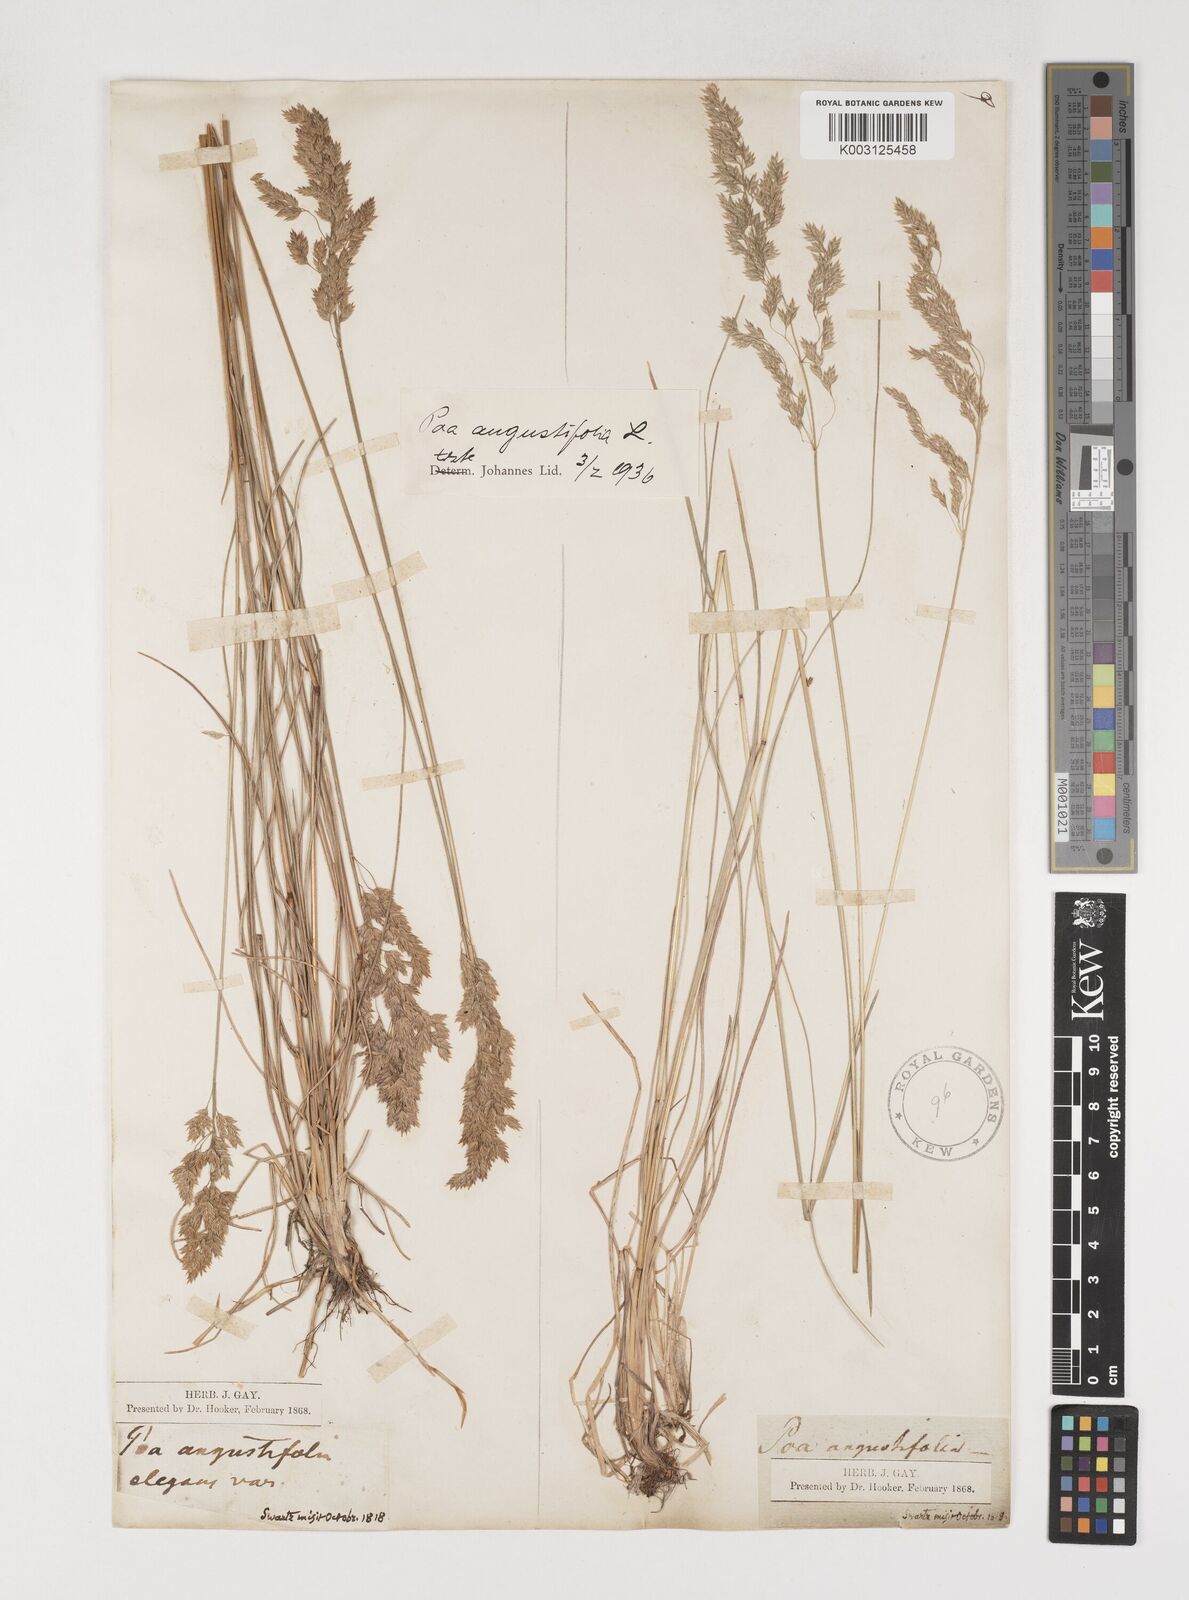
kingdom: Plantae
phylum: Tracheophyta
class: Liliopsida
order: Poales
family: Poaceae
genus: Poa
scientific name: Poa angustifolia
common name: Narrow-leaved meadow-grass
